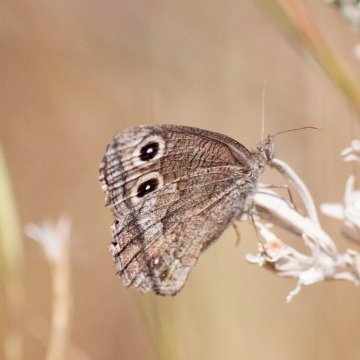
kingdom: Animalia
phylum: Arthropoda
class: Insecta
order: Lepidoptera
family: Nymphalidae
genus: Cercyonis
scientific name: Cercyonis pegala
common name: Common Wood-Nymph
